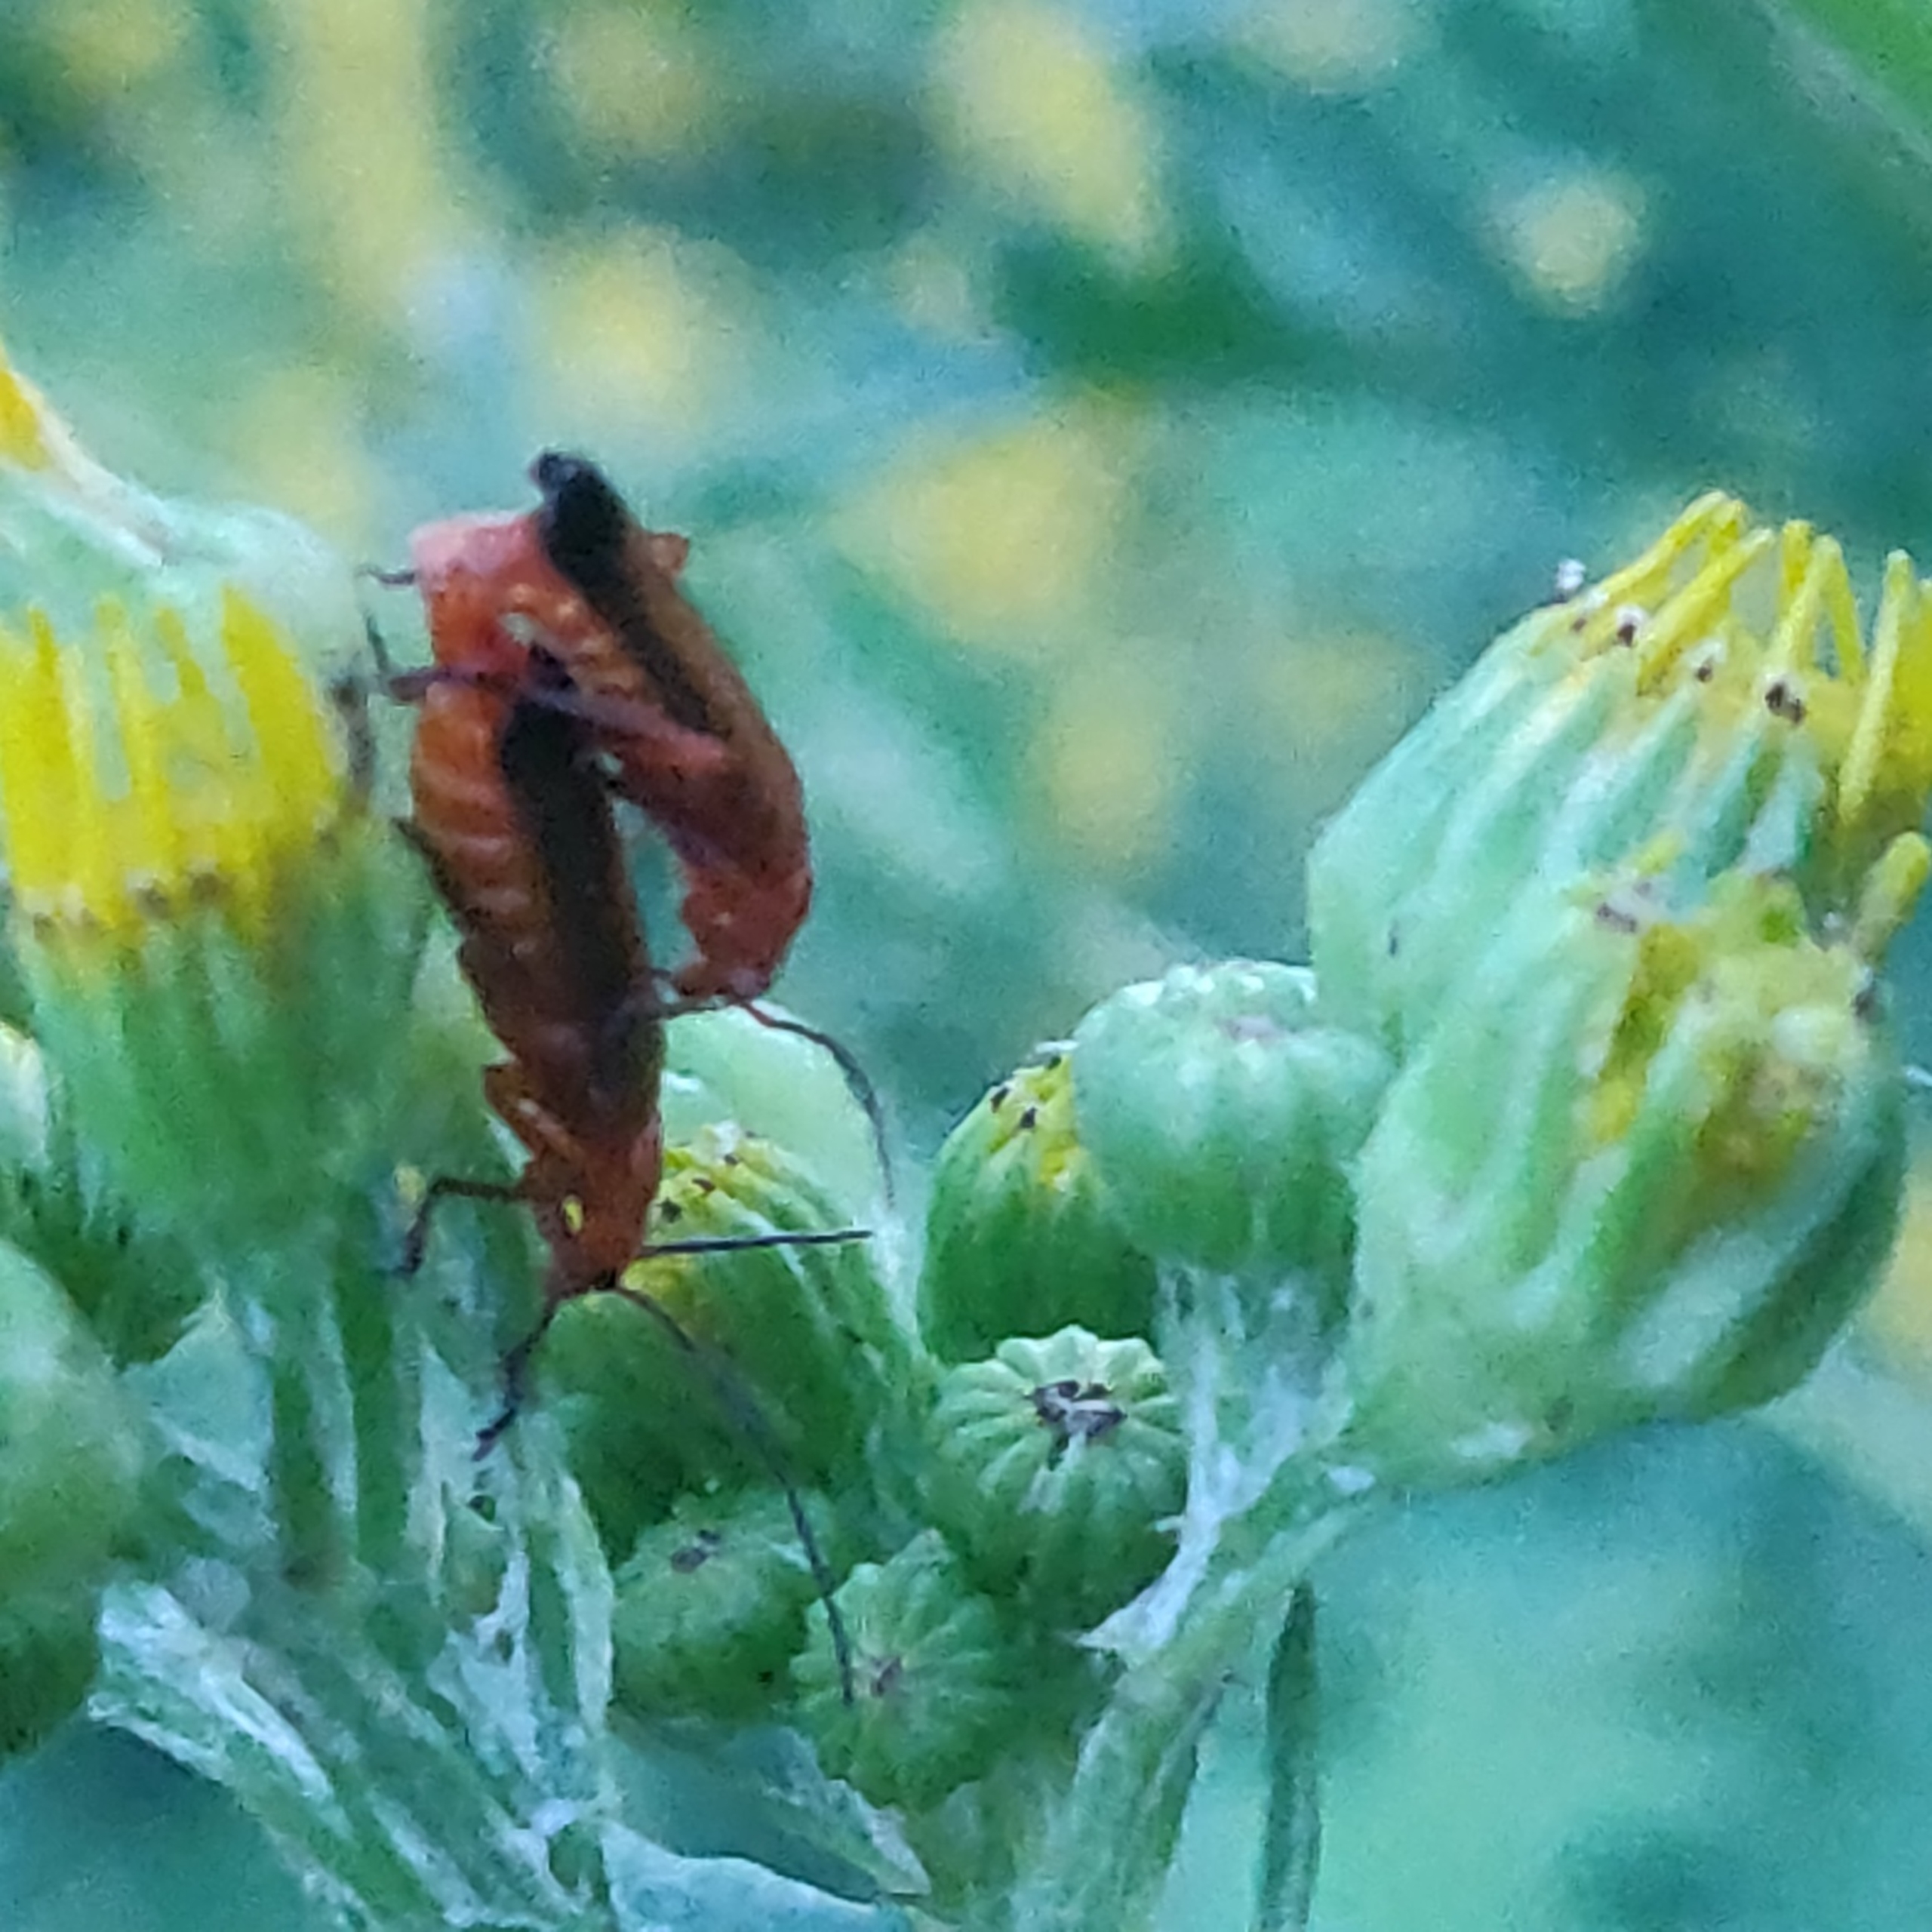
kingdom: Animalia
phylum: Arthropoda
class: Insecta
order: Coleoptera
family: Cantharidae
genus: Rhagonycha
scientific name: Rhagonycha fulva
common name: Præstebille
